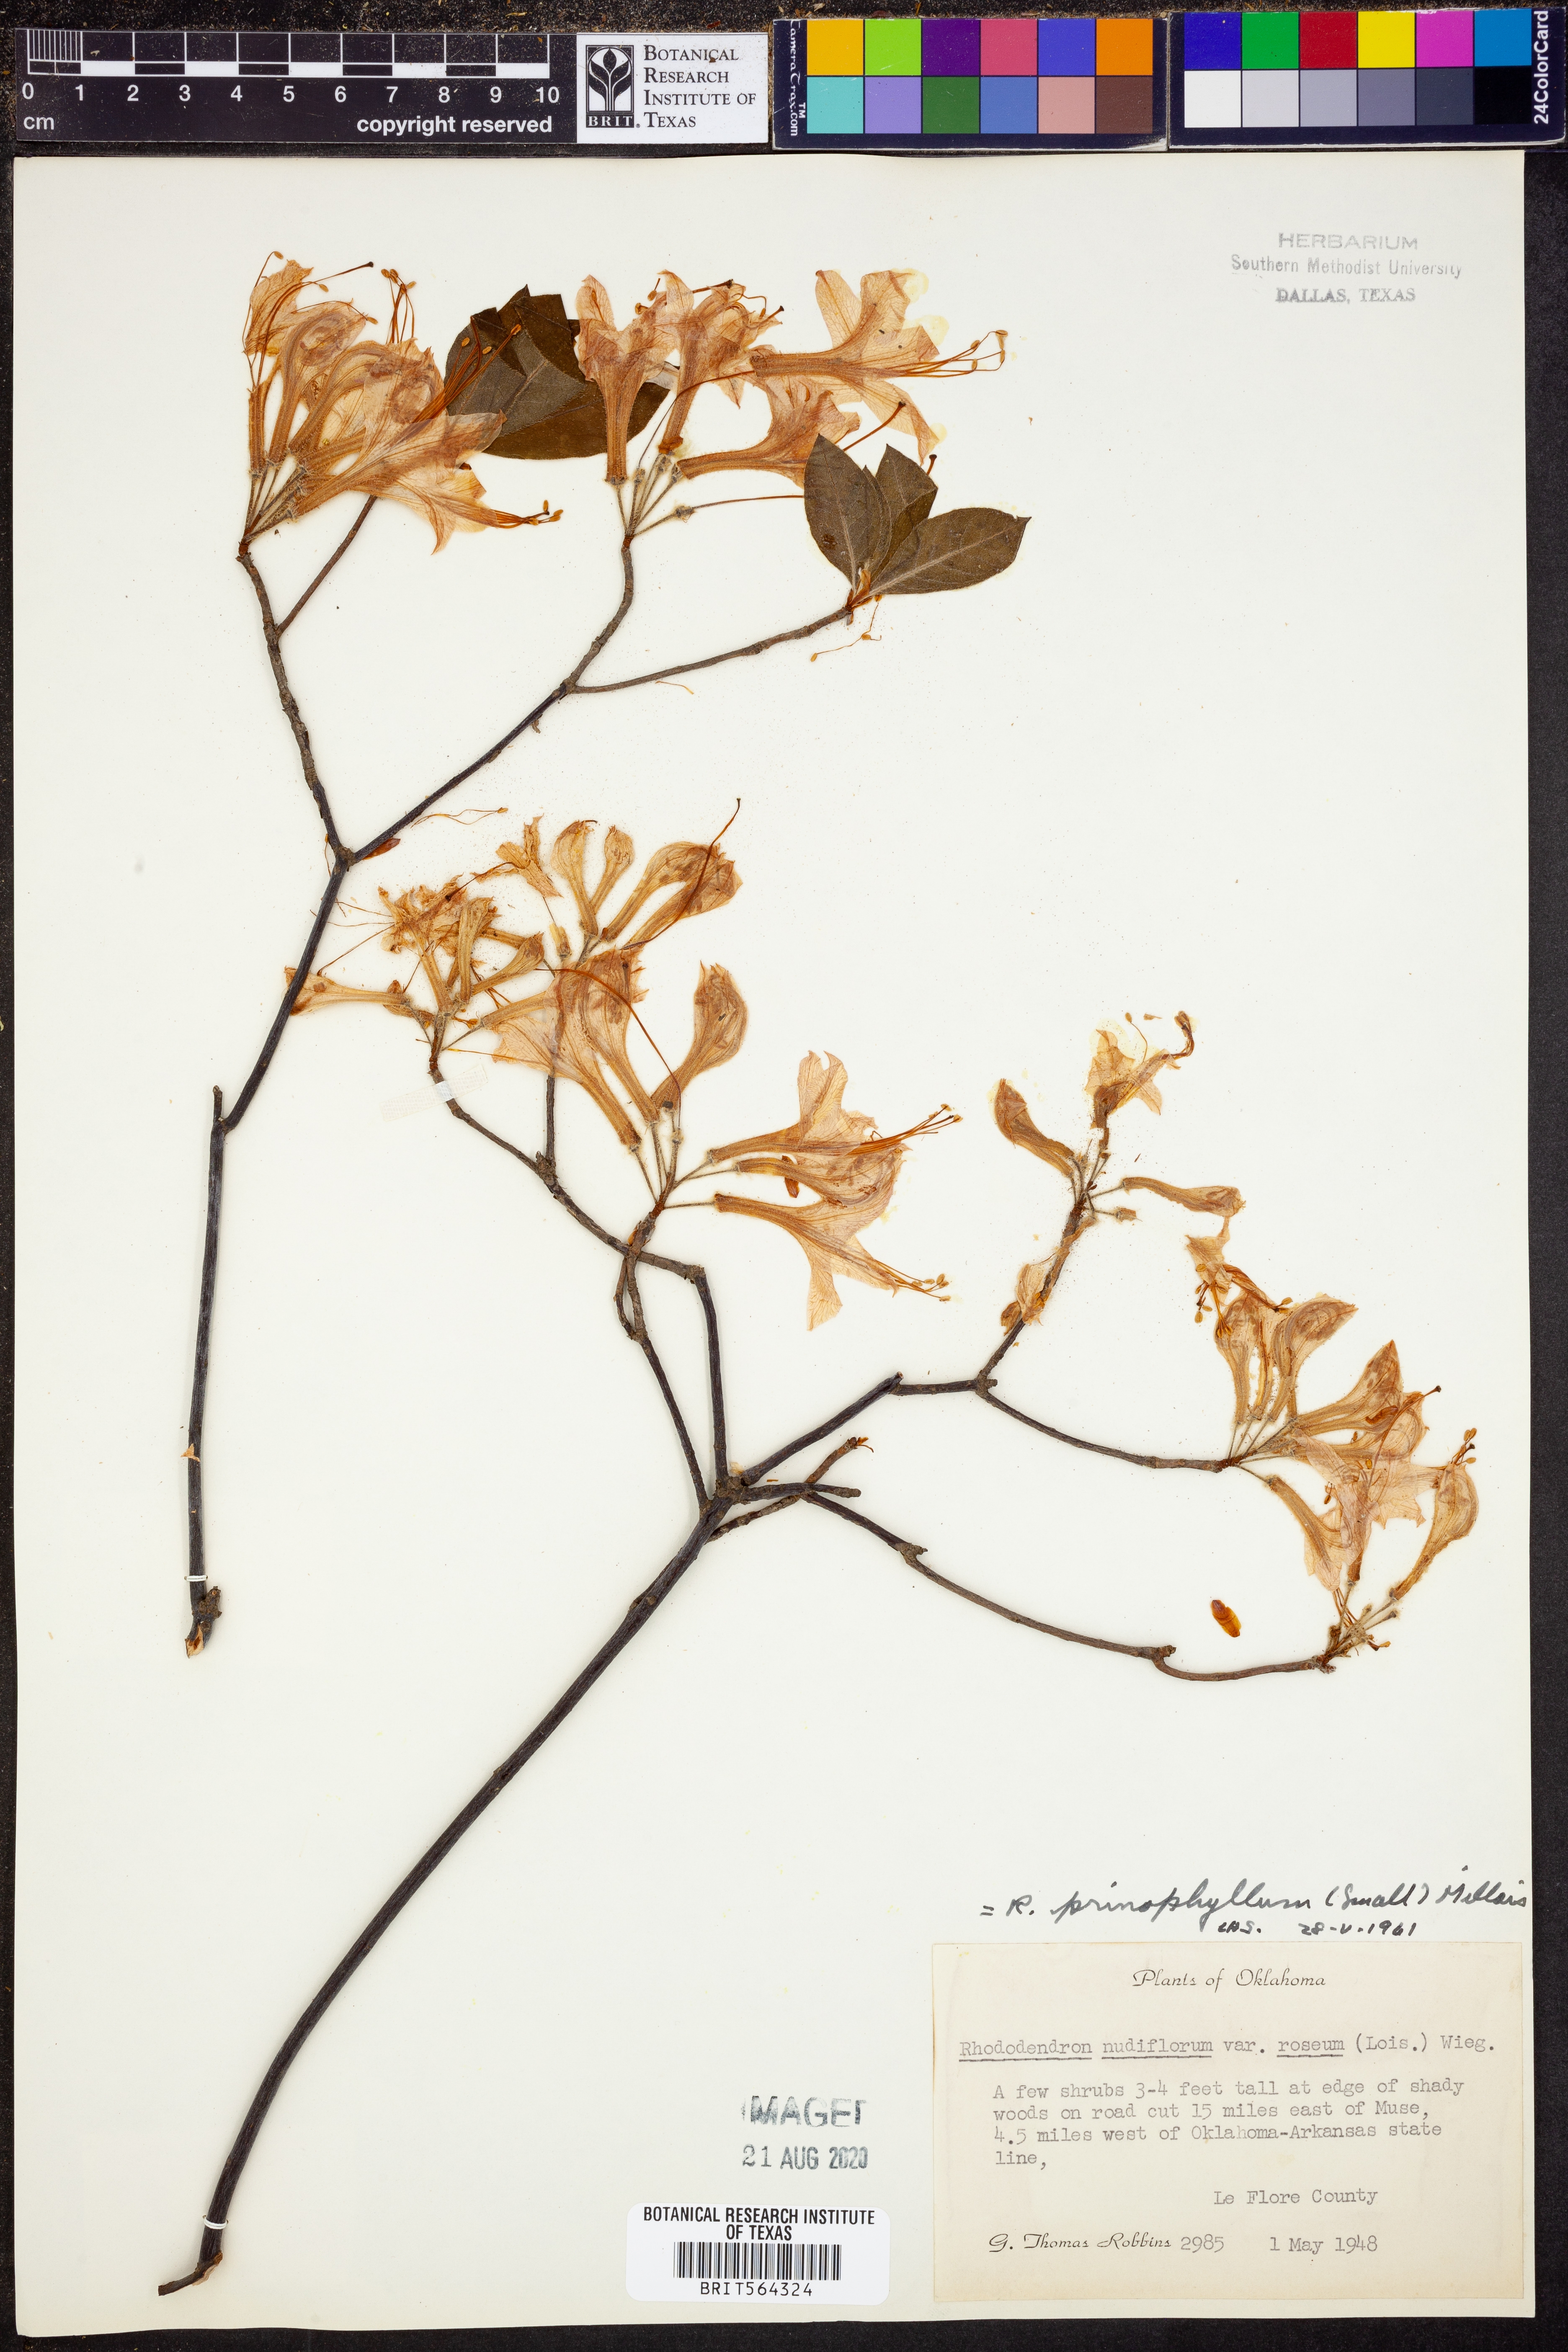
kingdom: Plantae
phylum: Tracheophyta
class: Magnoliopsida
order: Ericales
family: Ericaceae
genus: Rhododendron
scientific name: Rhododendron roseum
